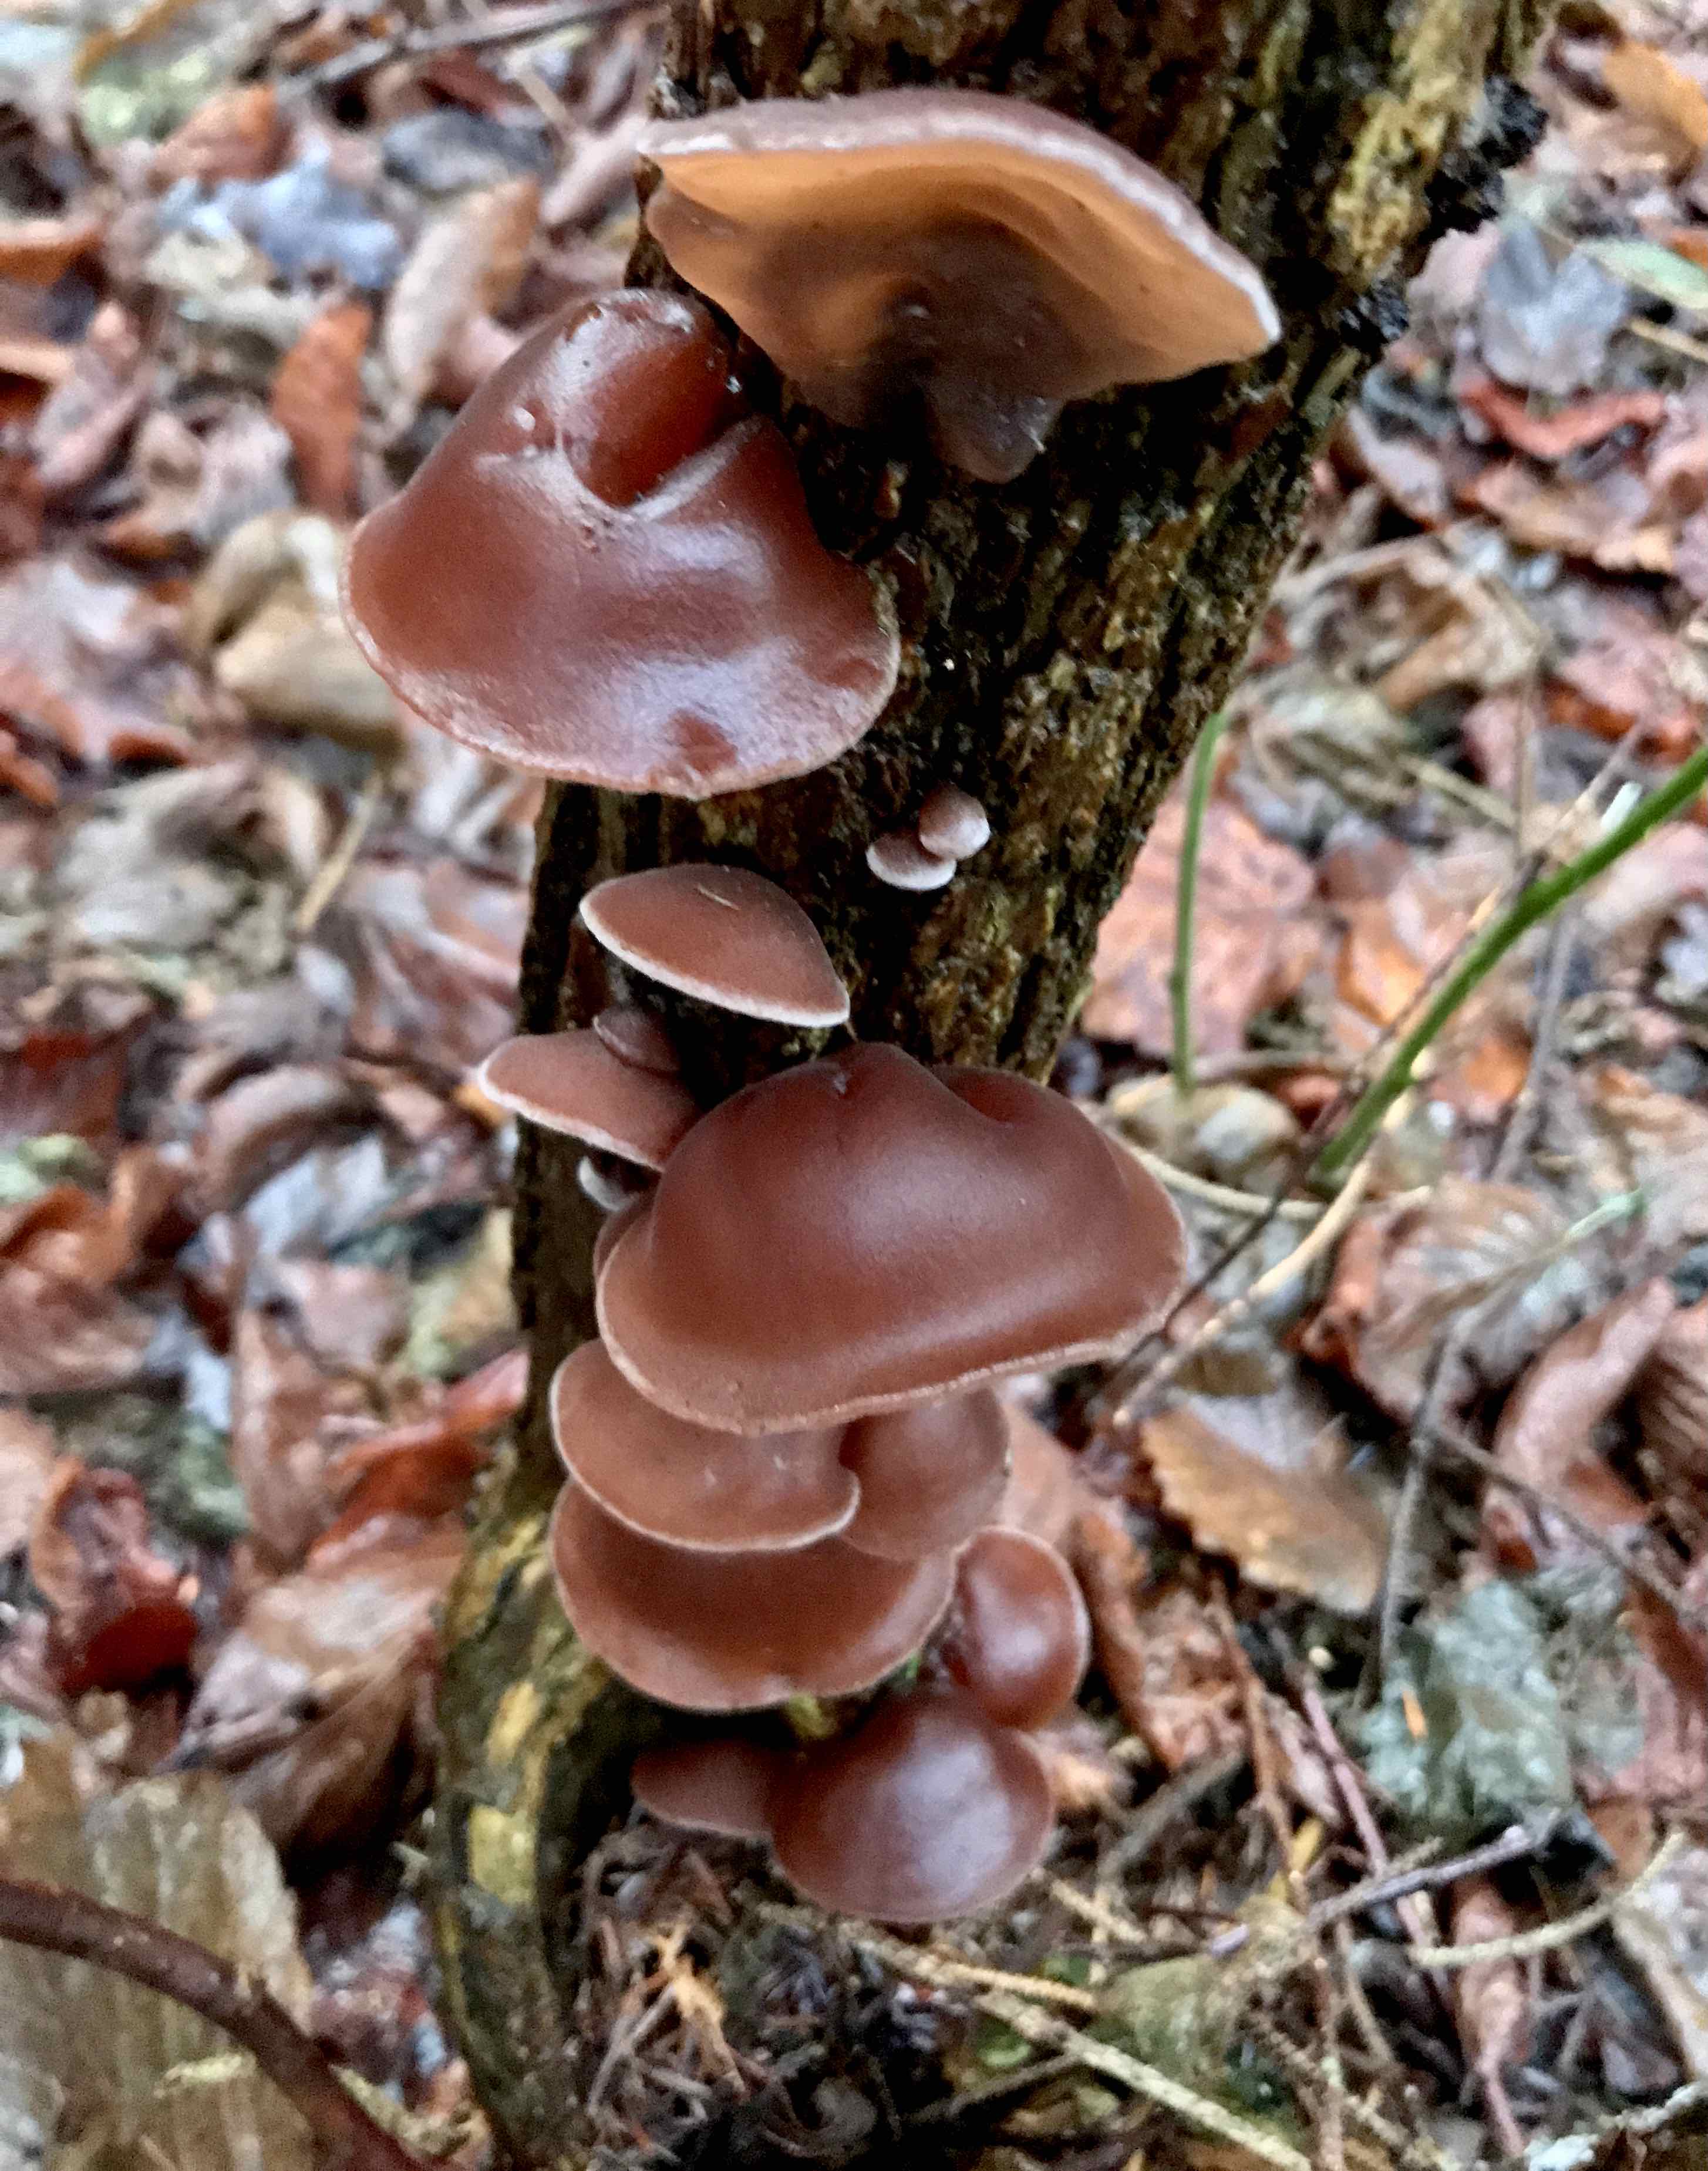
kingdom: Fungi
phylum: Basidiomycota
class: Agaricomycetes
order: Auriculariales
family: Auriculariaceae
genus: Auricularia
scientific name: Auricularia auricula-judae
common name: almindelig judasøre
